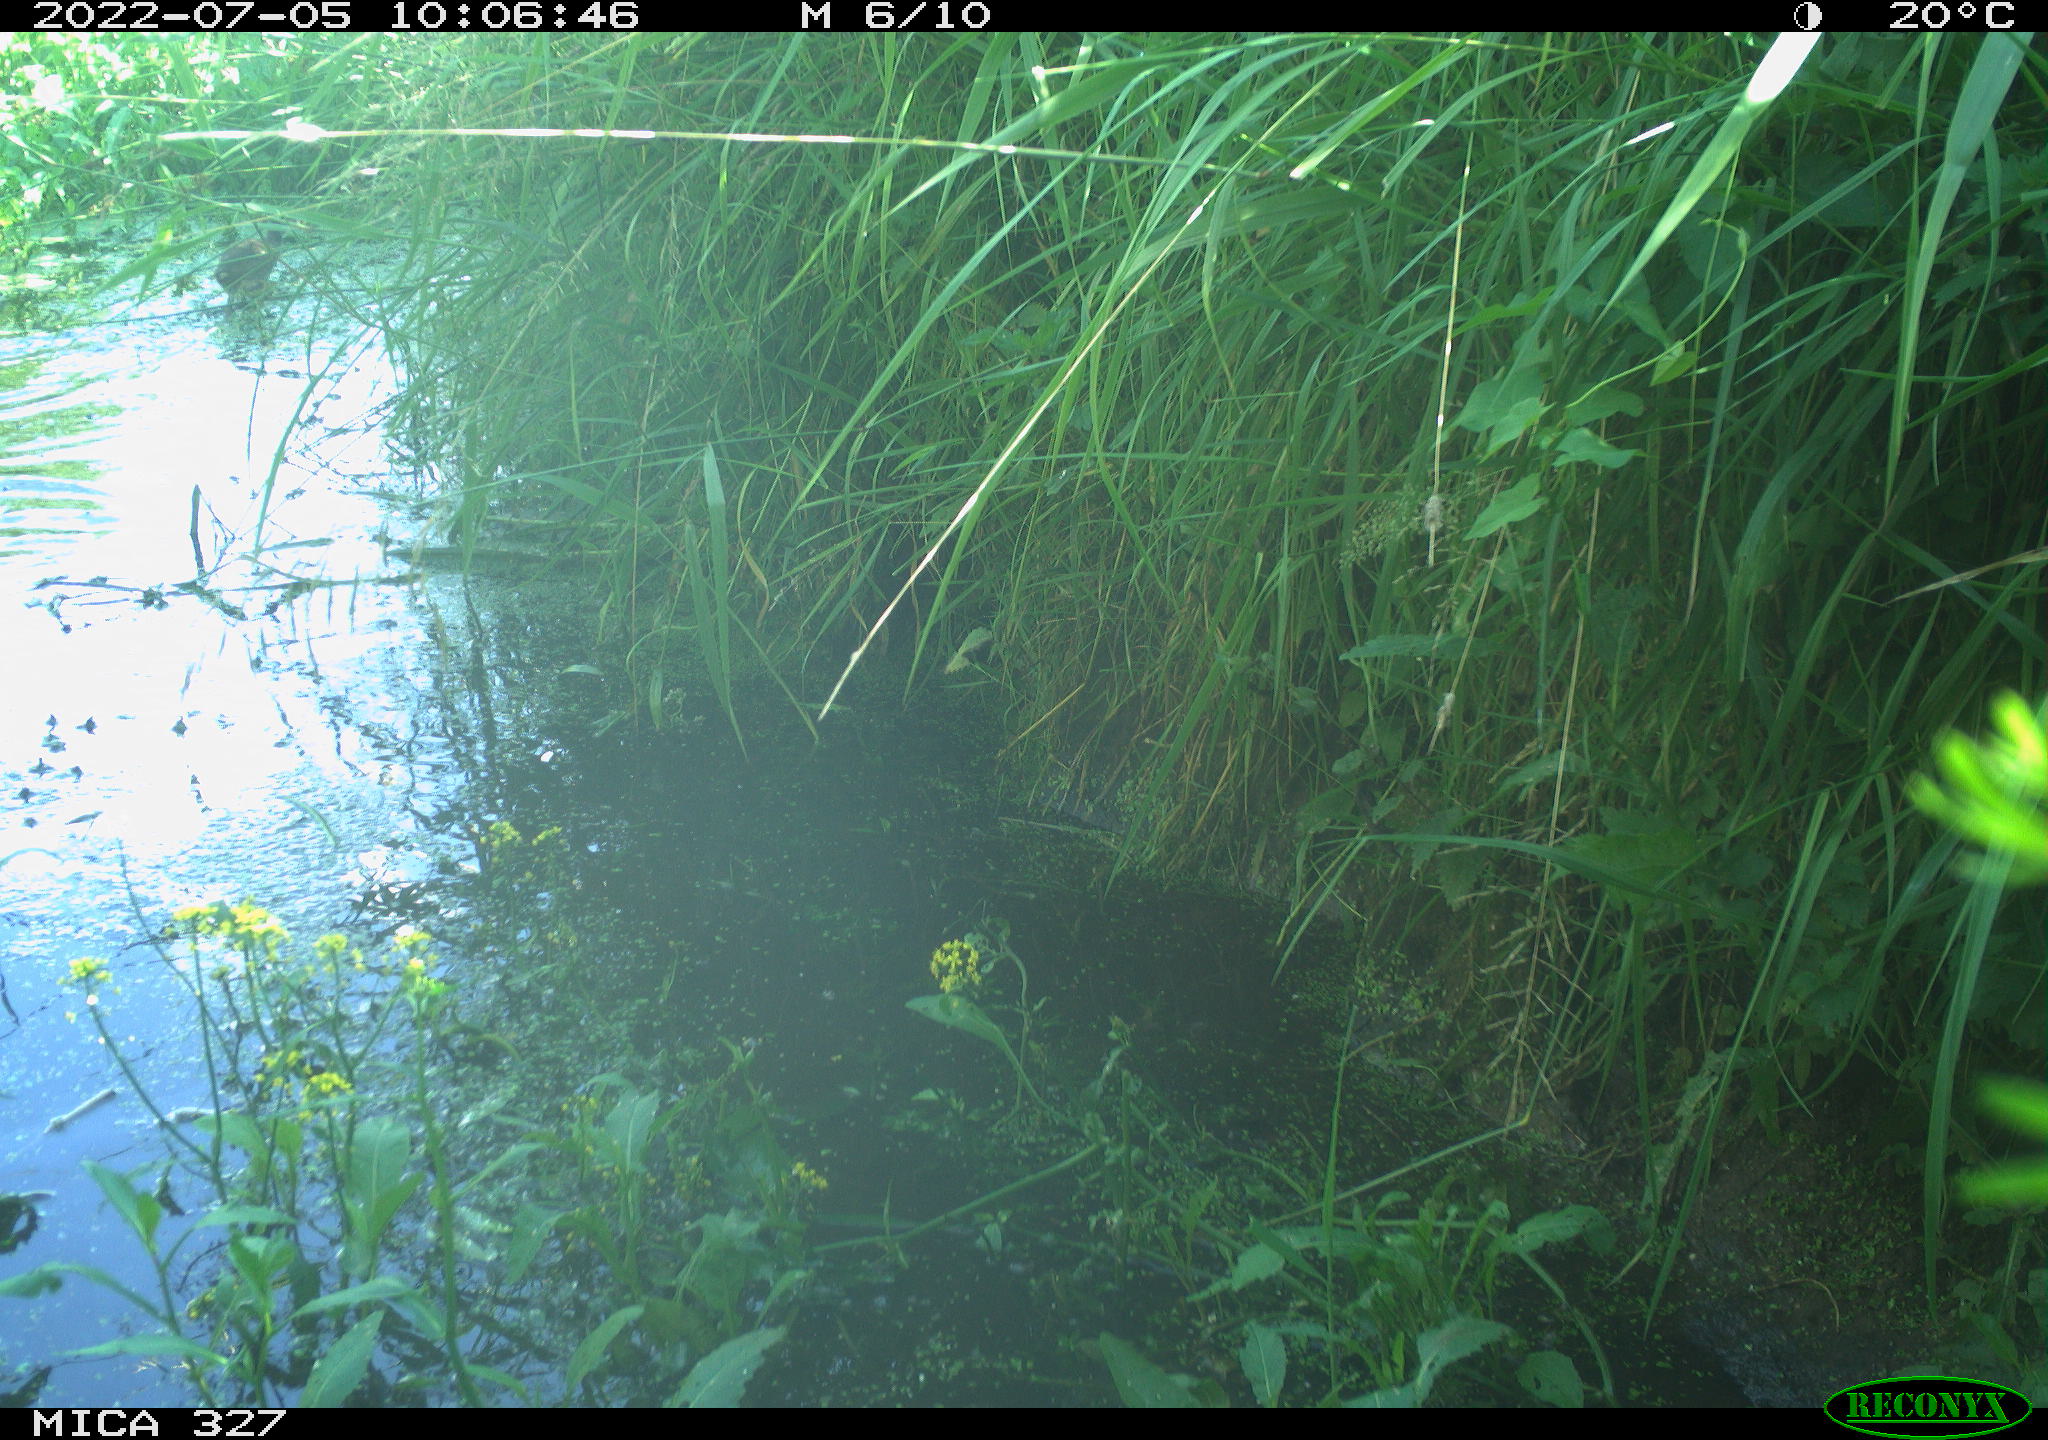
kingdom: Animalia
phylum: Chordata
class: Aves
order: Gruiformes
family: Rallidae
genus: Gallinula
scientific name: Gallinula chloropus
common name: Common moorhen
